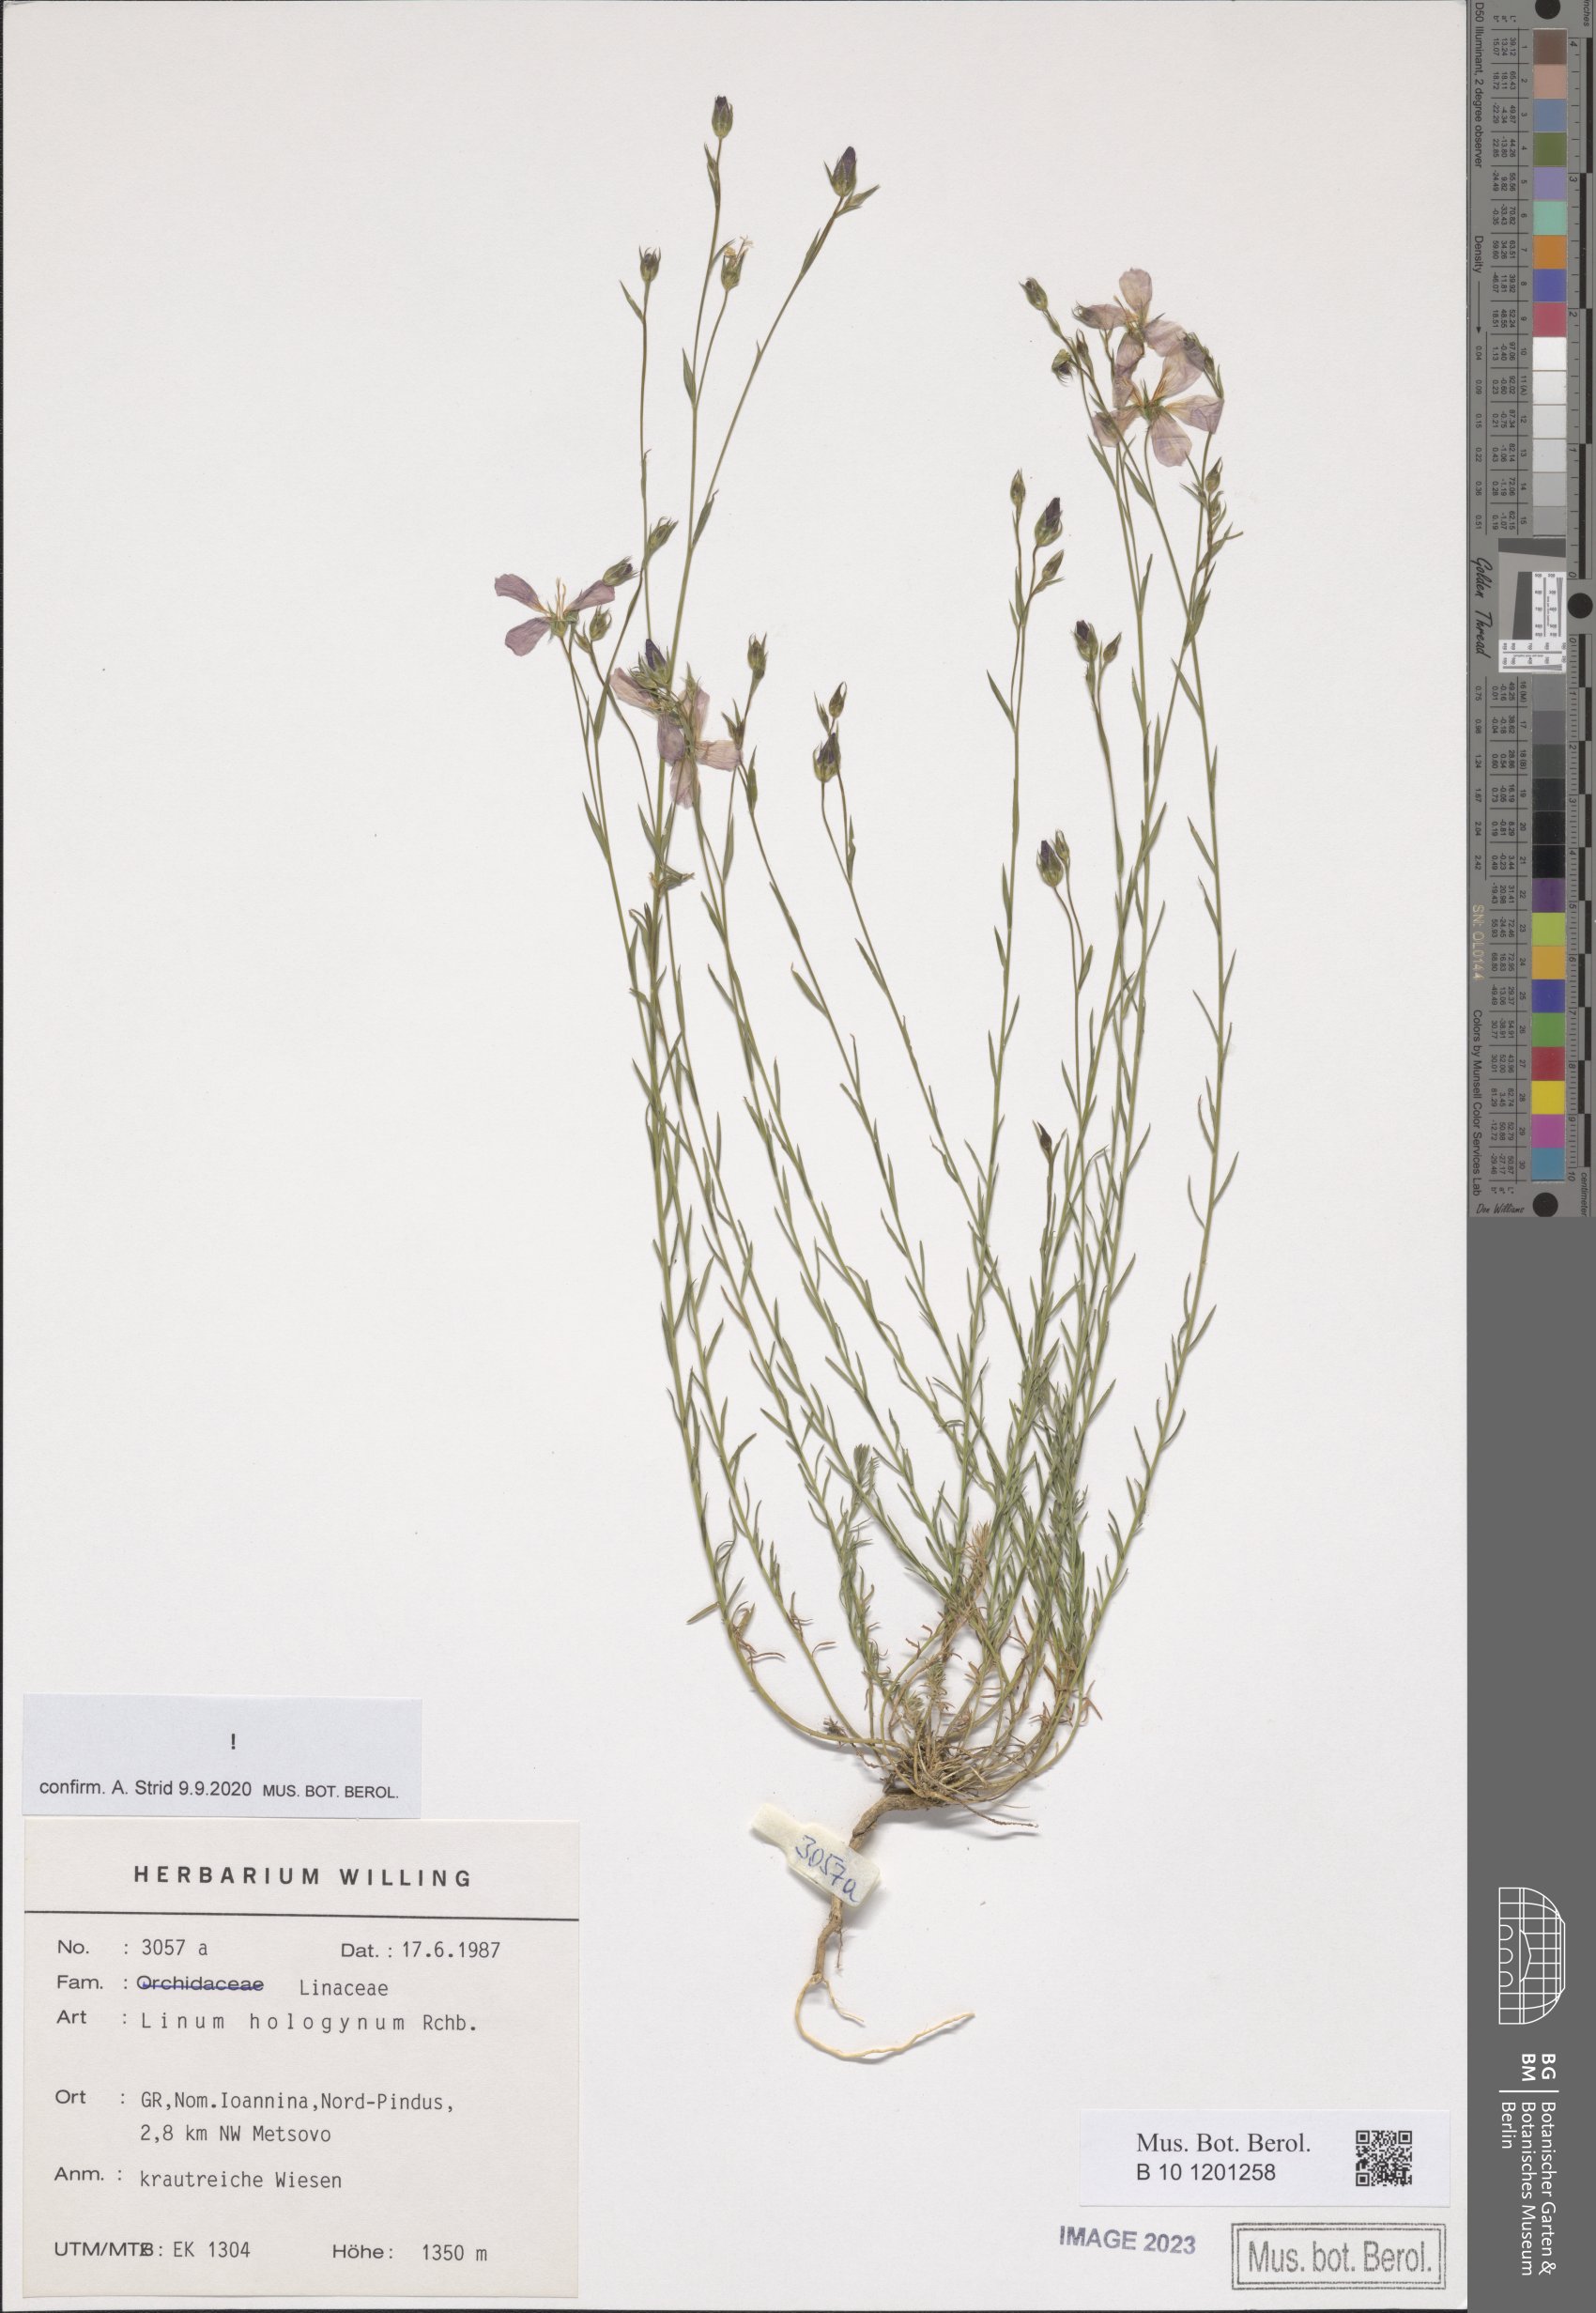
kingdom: Plantae
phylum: Tracheophyta
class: Magnoliopsida
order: Malpighiales
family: Linaceae
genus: Linum
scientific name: Linum hologynum
